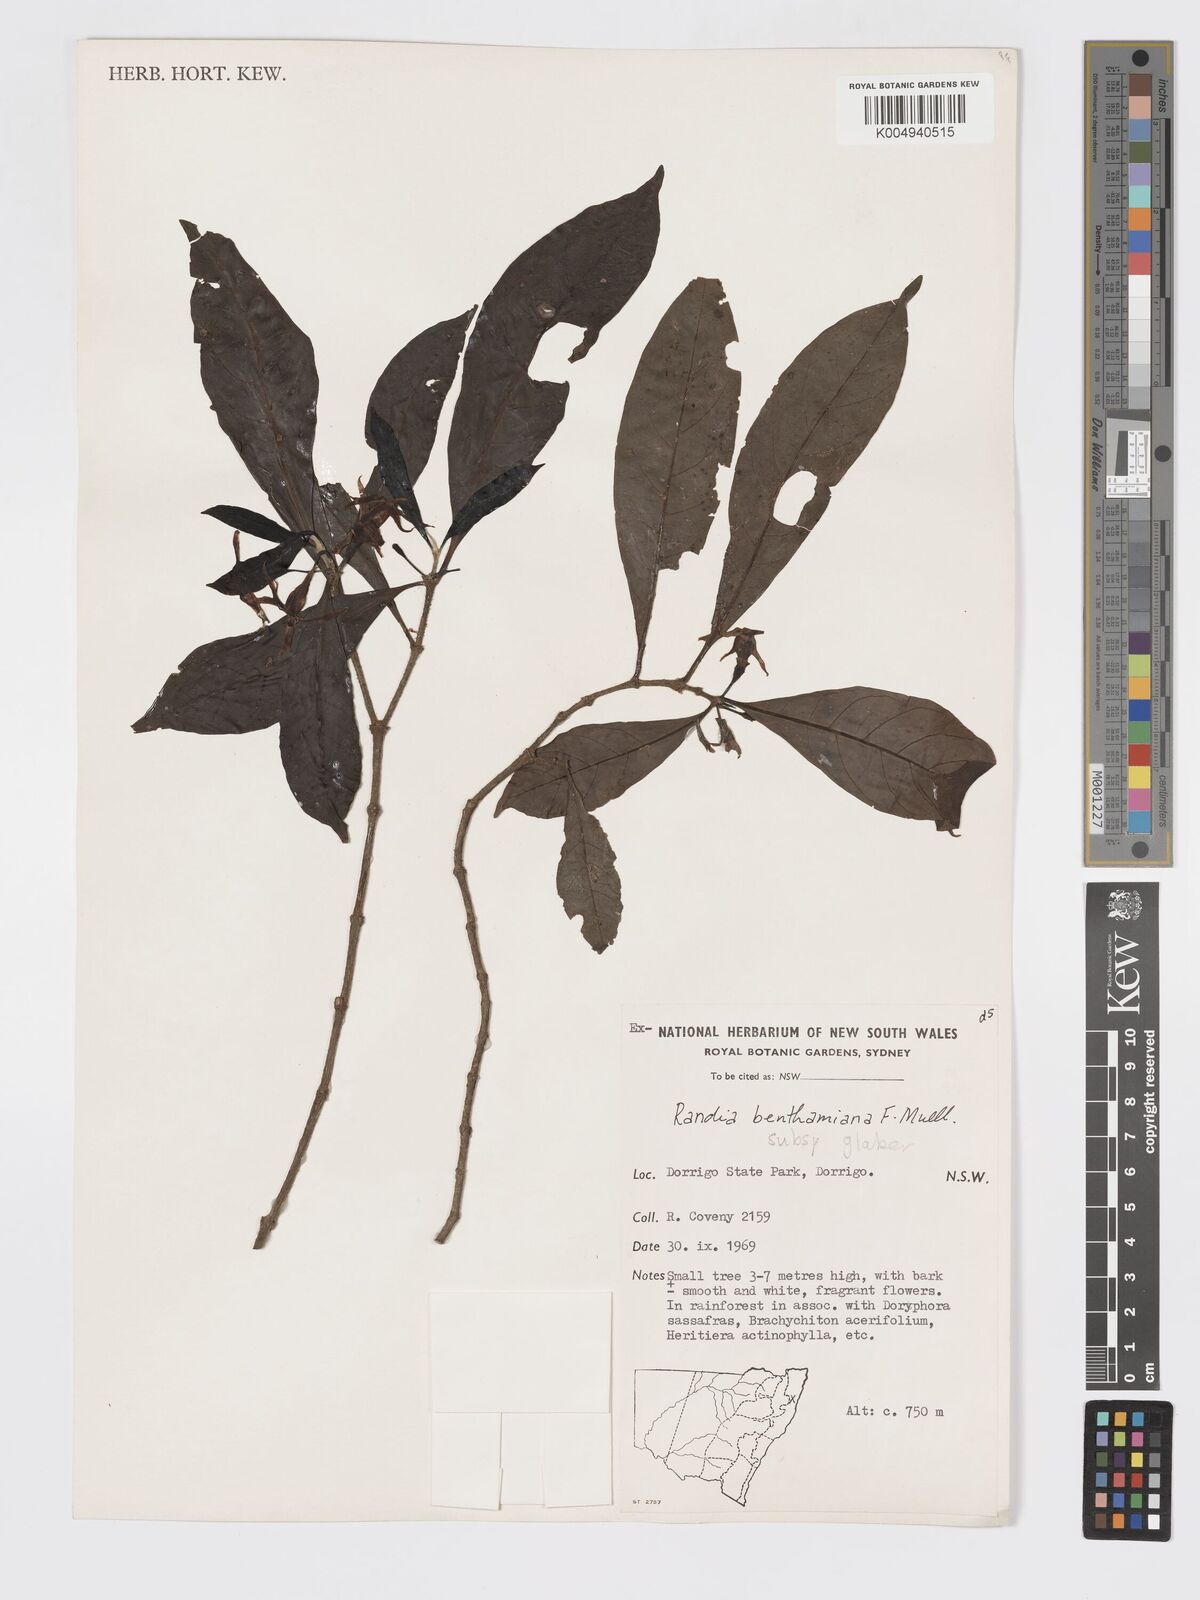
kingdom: Plantae
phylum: Tracheophyta
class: Magnoliopsida
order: Gentianales
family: Rubiaceae
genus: Atractocarpus
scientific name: Atractocarpus benthamianus
